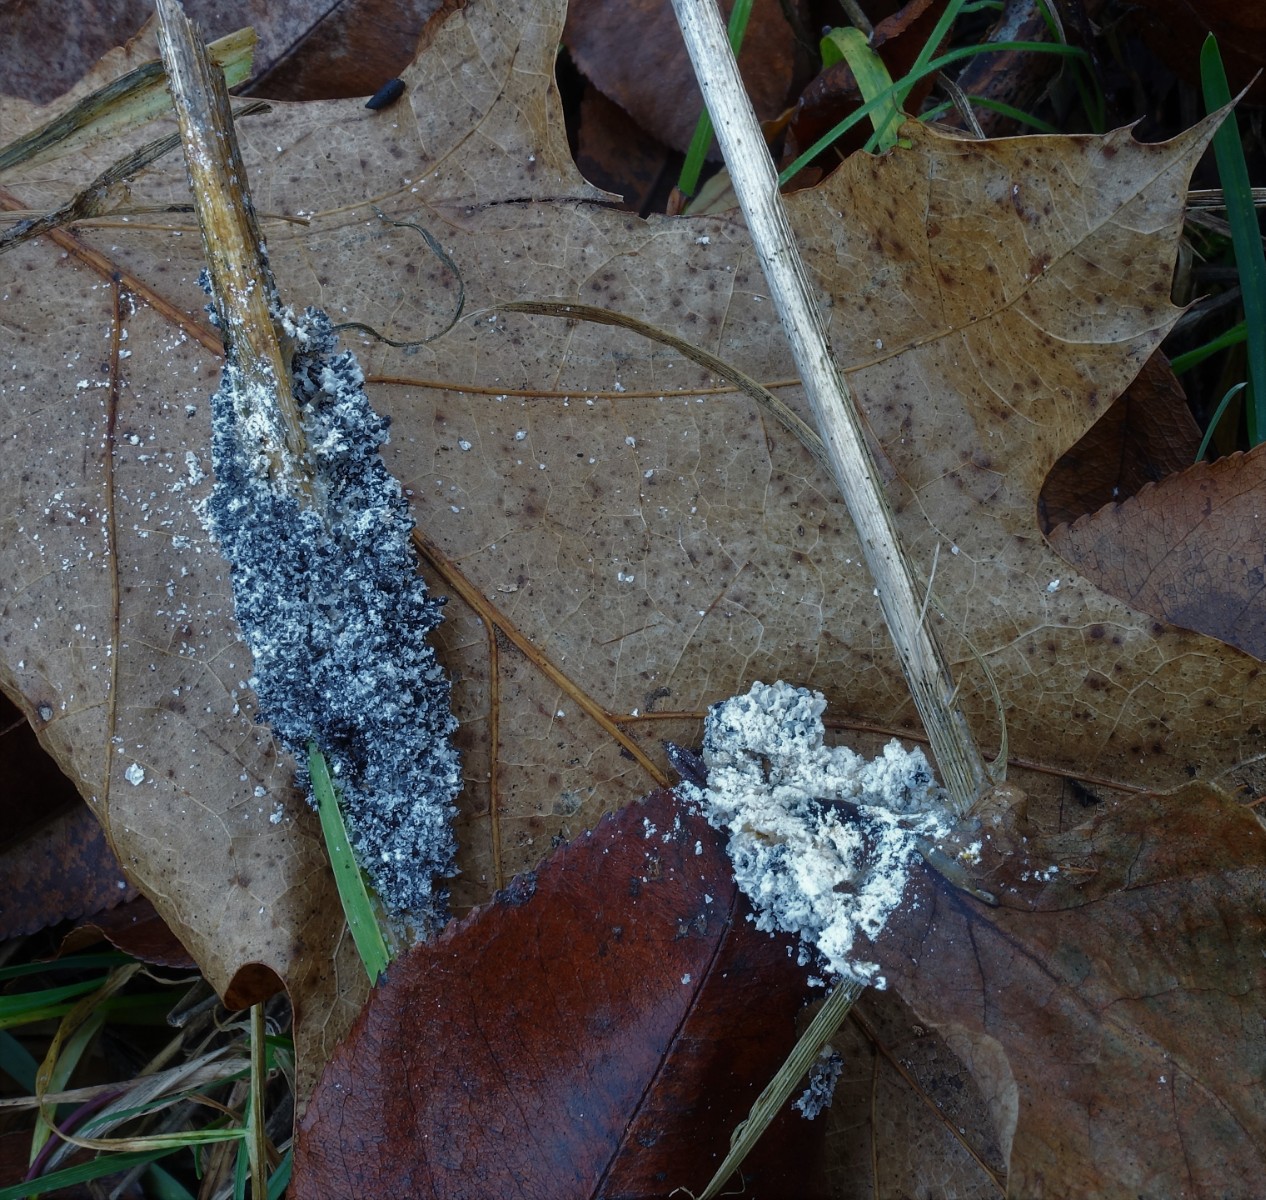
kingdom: Protozoa
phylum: Mycetozoa
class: Myxomycetes
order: Physarales
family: Physaraceae
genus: Didymium
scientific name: Didymium
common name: urteskum
